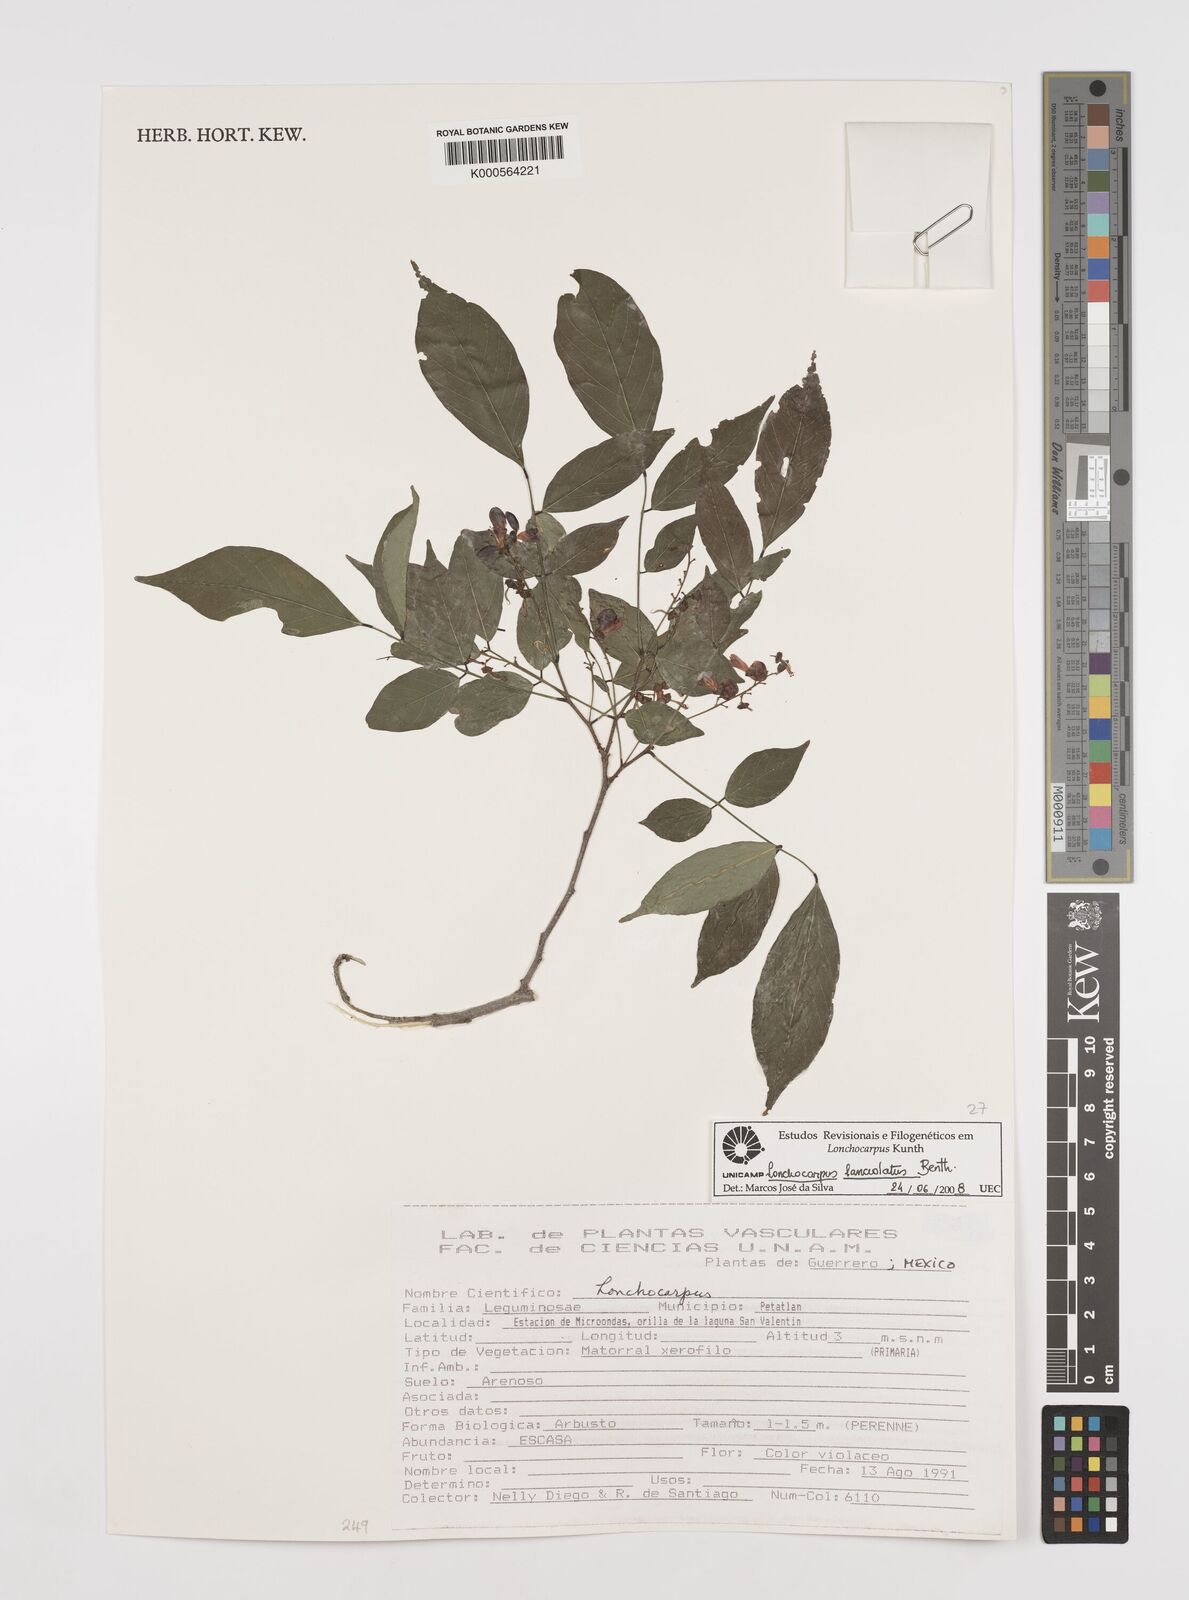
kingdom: Plantae
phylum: Tracheophyta
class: Magnoliopsida
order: Fabales
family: Fabaceae
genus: Lonchocarpus
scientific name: Lonchocarpus lanceolatus
